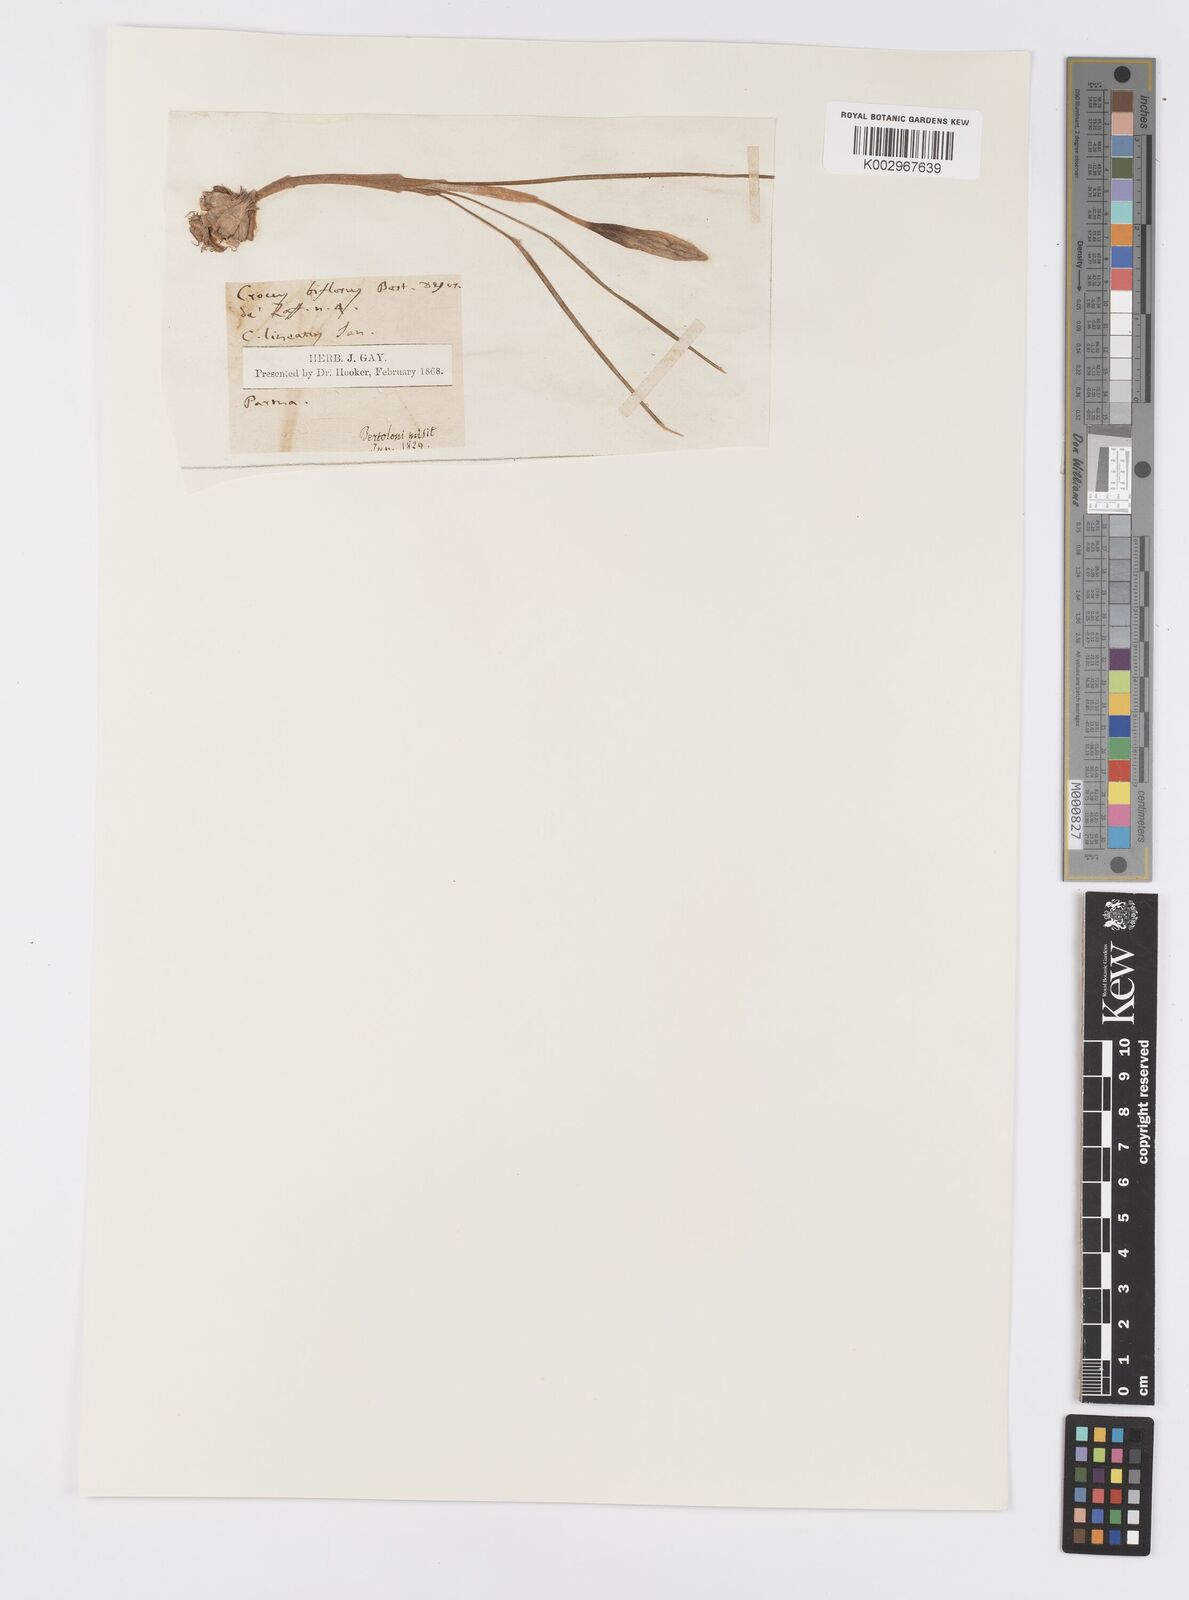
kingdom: Plantae
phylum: Tracheophyta
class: Liliopsida
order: Asparagales
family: Iridaceae
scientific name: Iridaceae
